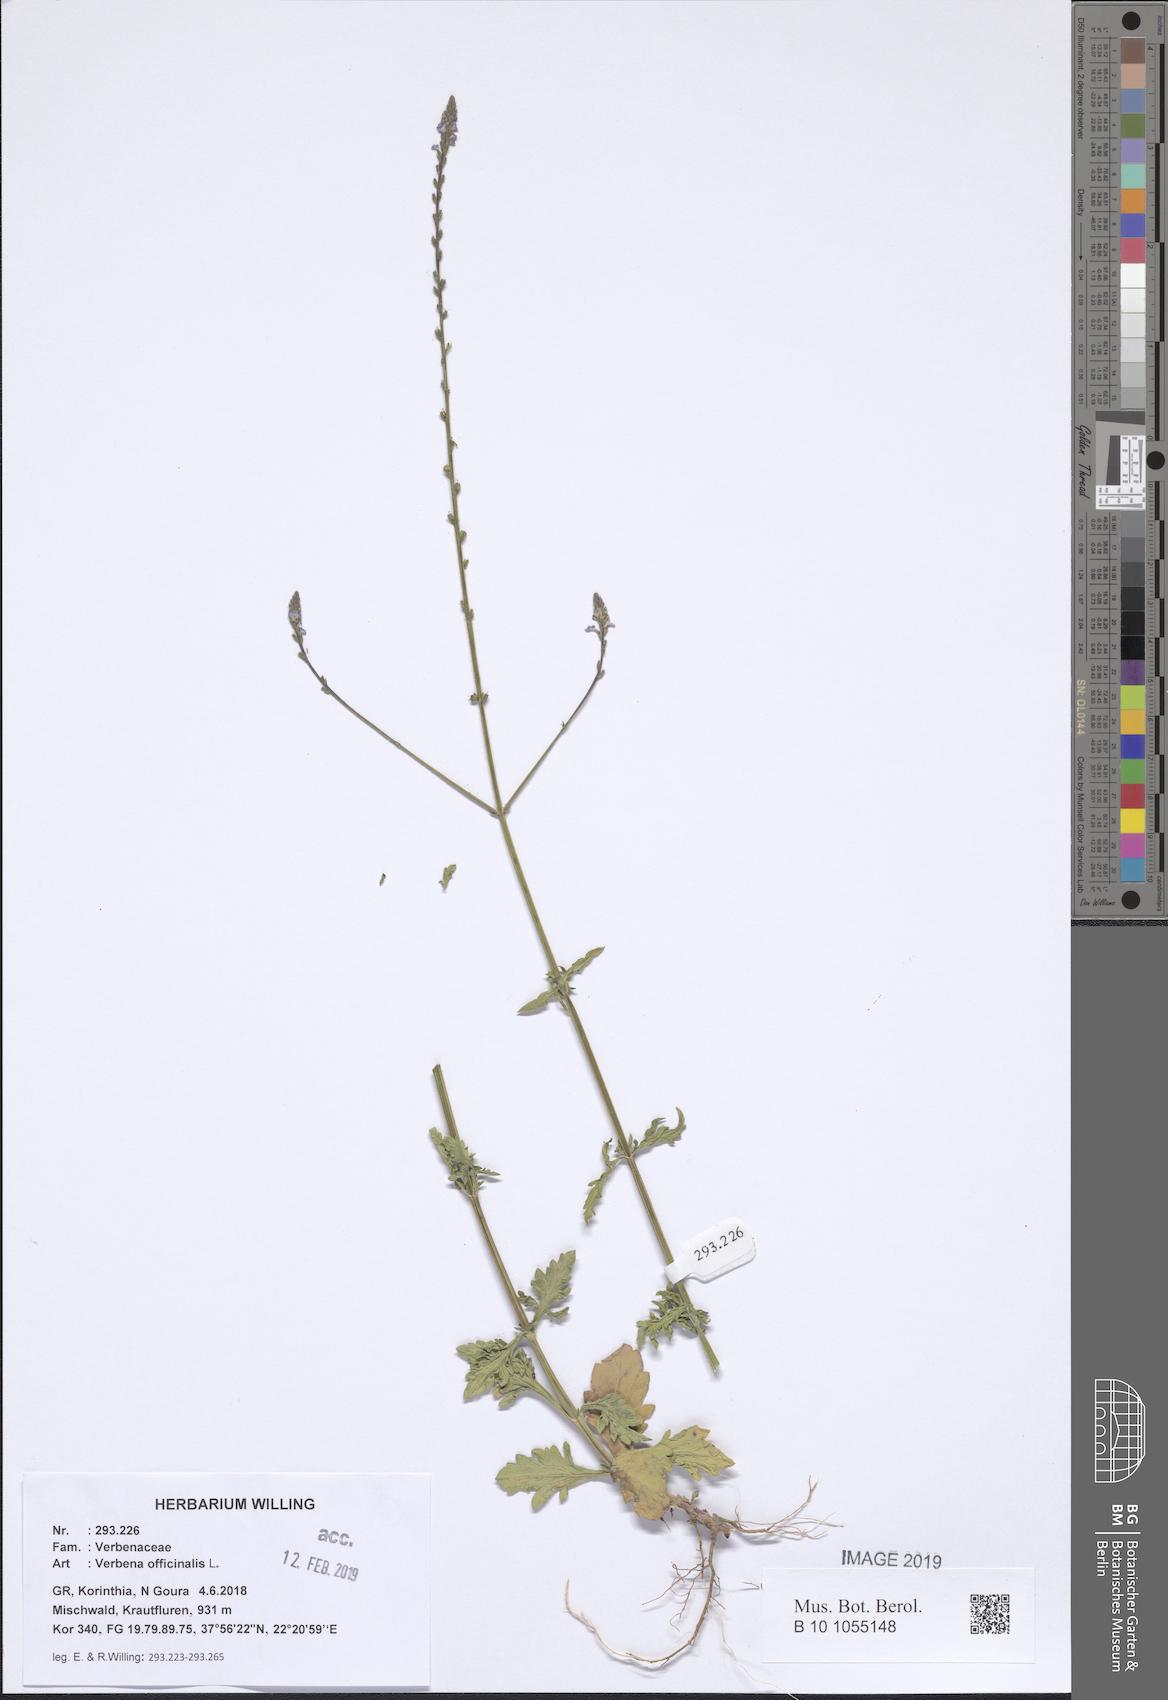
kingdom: Plantae
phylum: Tracheophyta
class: Magnoliopsida
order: Lamiales
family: Verbenaceae
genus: Verbena
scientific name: Verbena officinalis
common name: Vervain
